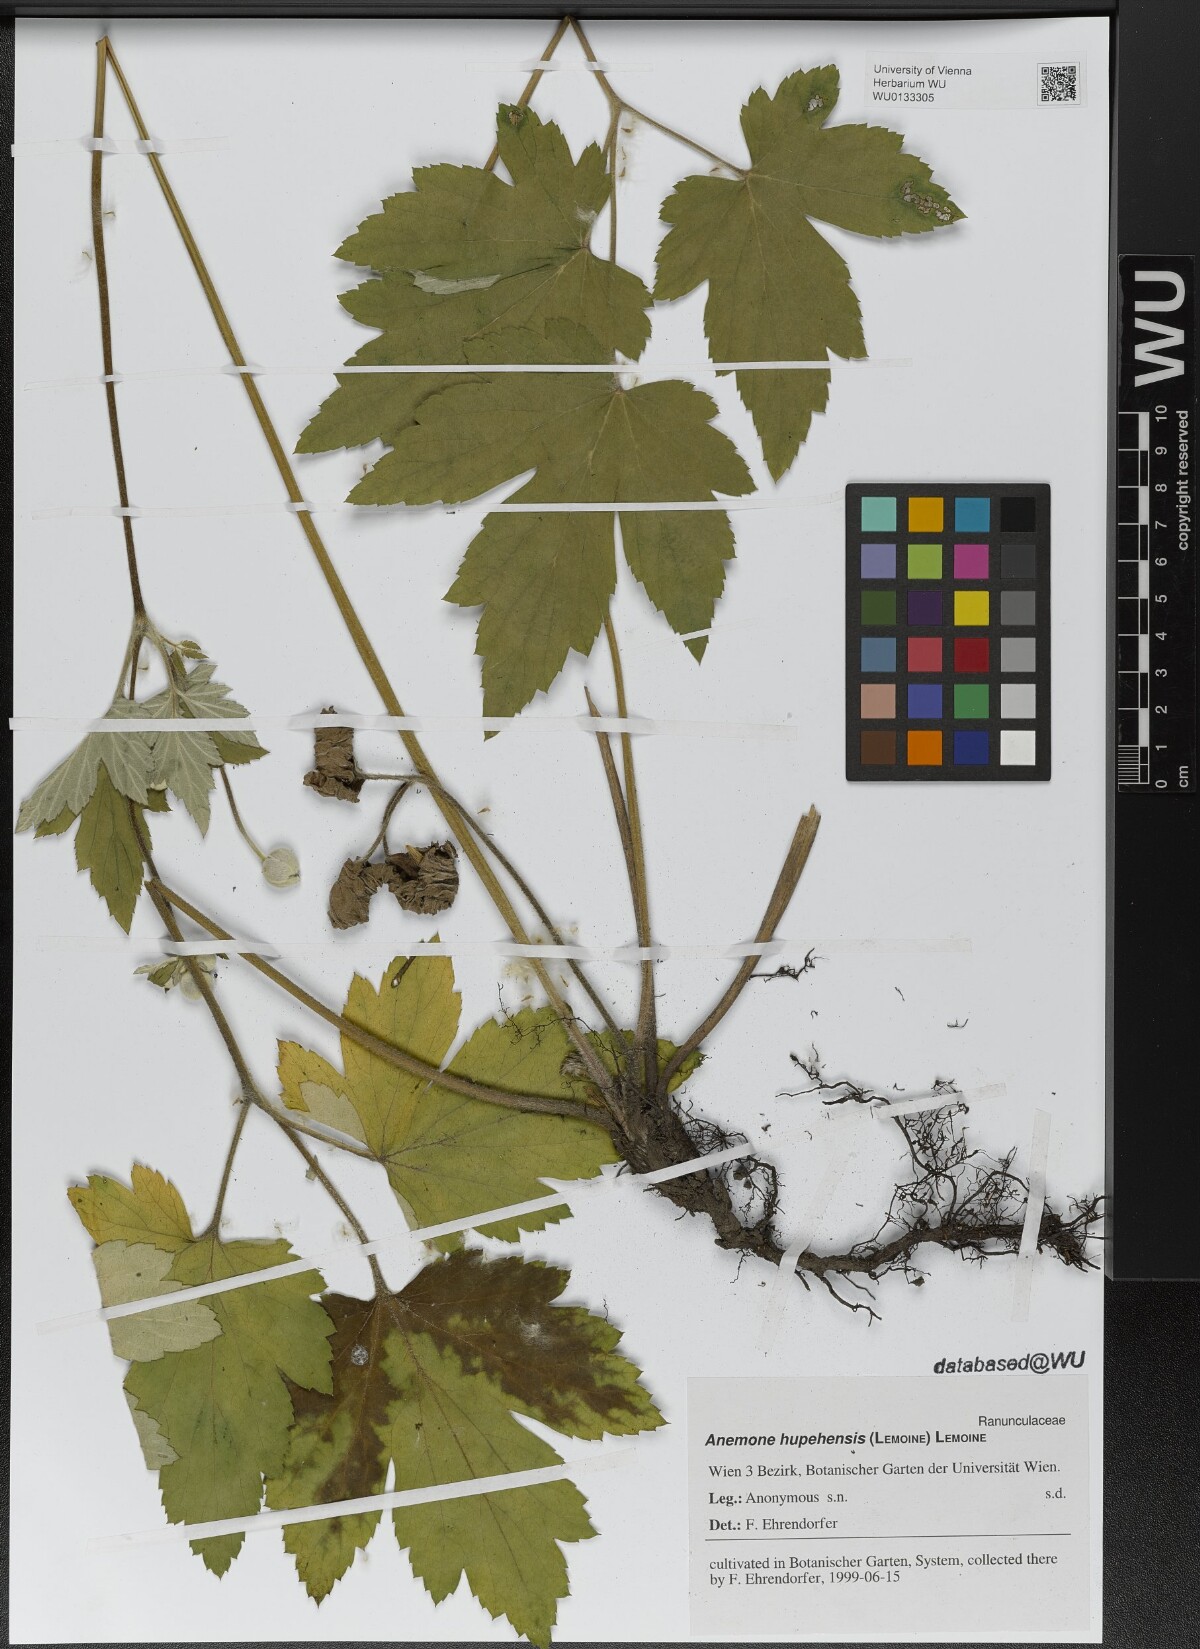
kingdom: Plantae
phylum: Tracheophyta
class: Magnoliopsida
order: Ranunculales
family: Ranunculaceae
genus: Eriocapitella
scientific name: Eriocapitella hupehensis
